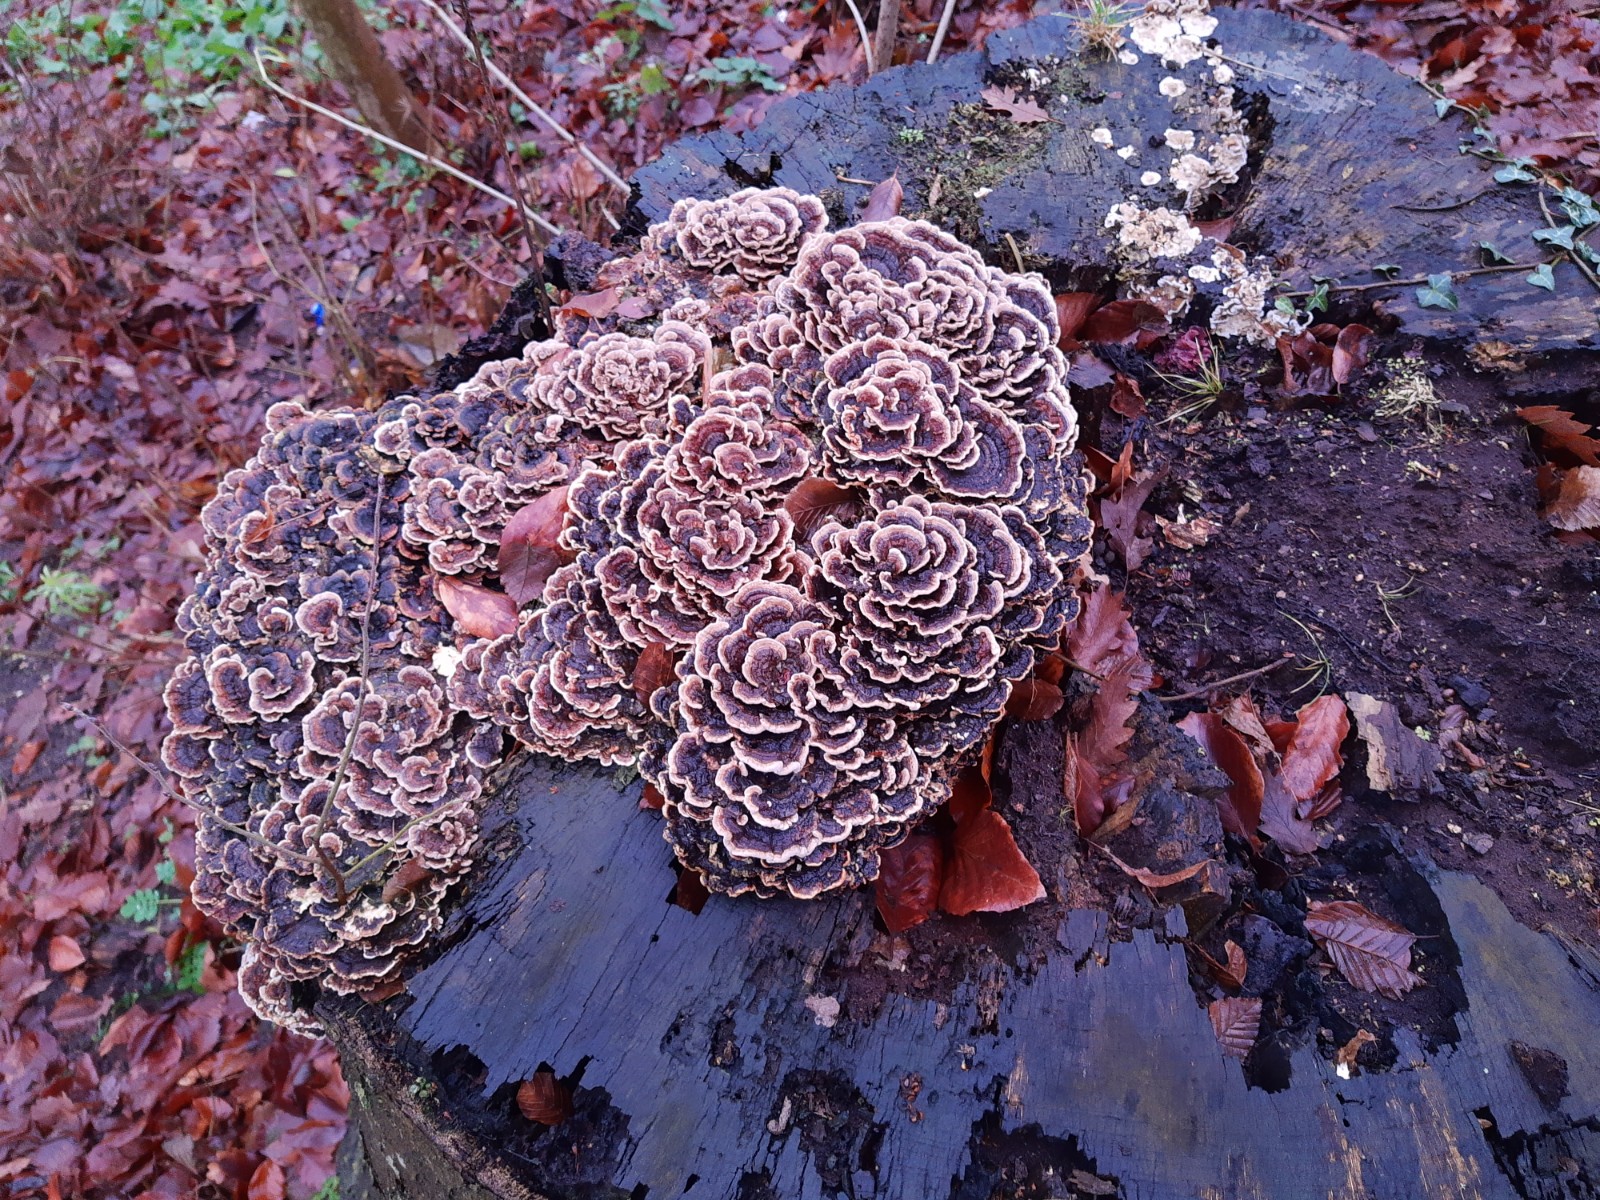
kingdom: Fungi
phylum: Basidiomycota
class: Agaricomycetes
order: Polyporales
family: Polyporaceae
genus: Trametes
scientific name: Trametes versicolor
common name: broget læderporesvamp
